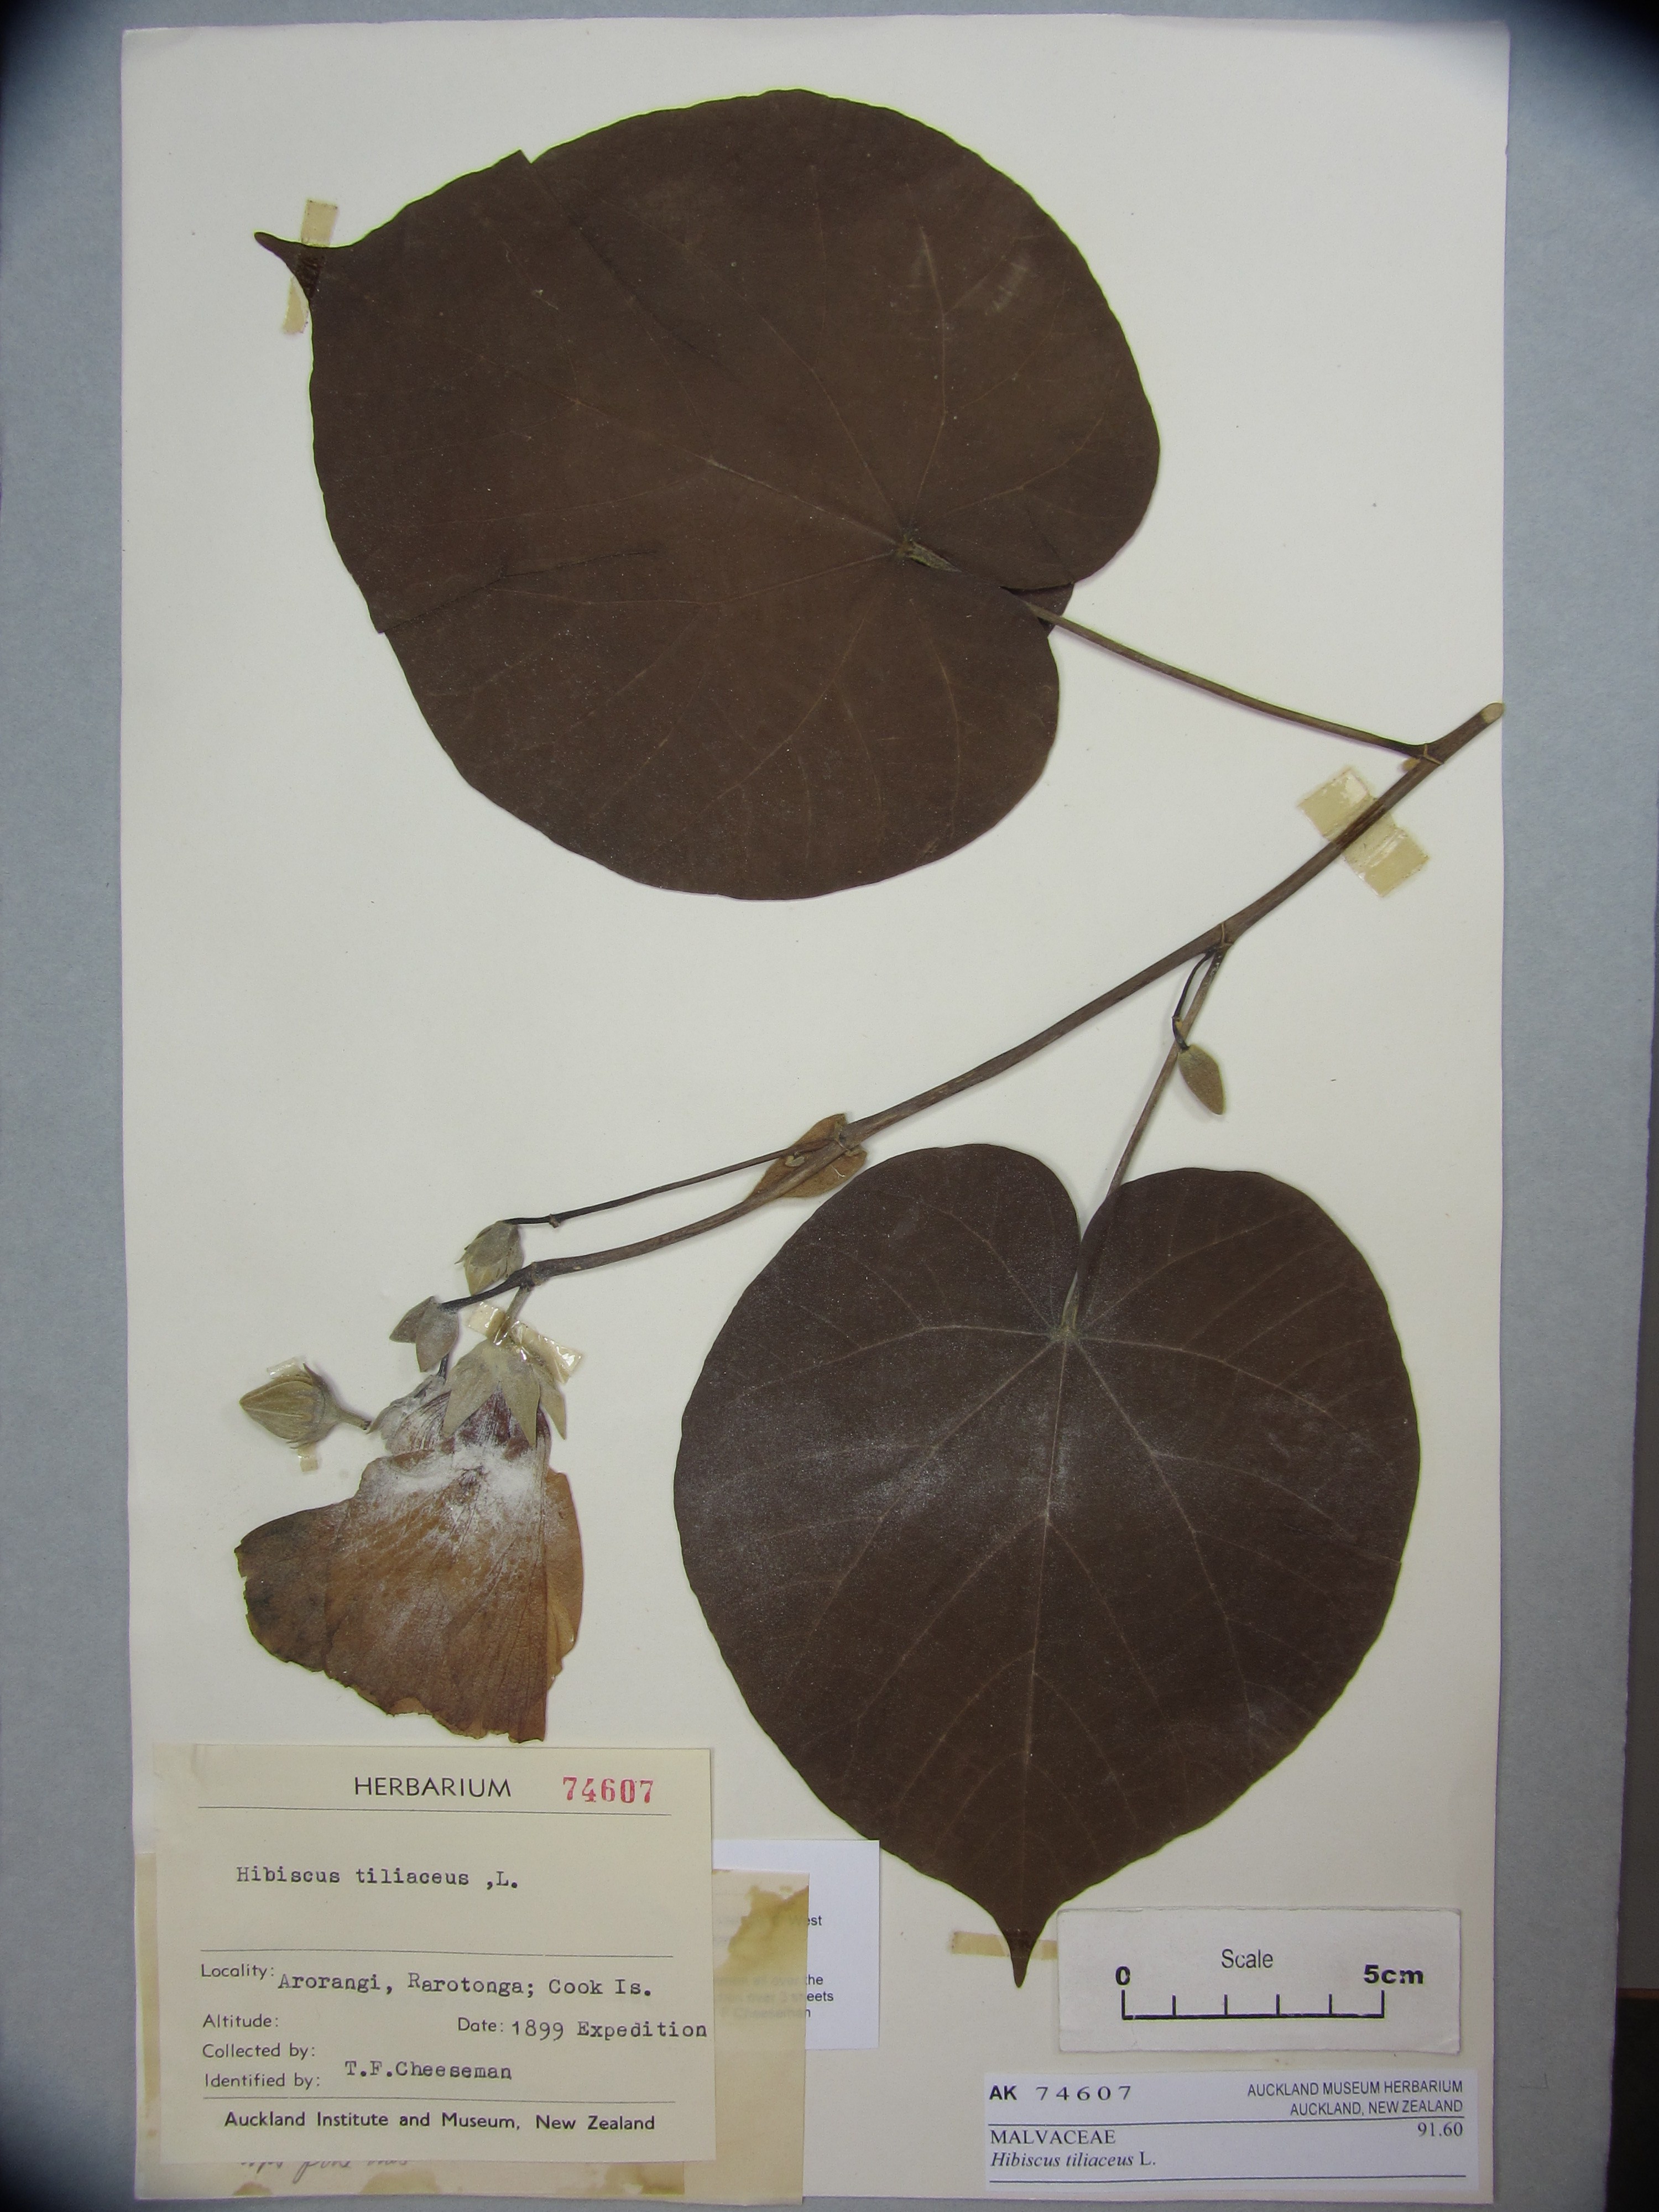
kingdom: Plantae
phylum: Tracheophyta
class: Magnoliopsida
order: Malvales
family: Malvaceae
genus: Talipariti
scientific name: Talipariti tiliaceum
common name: Sea hibiscus
